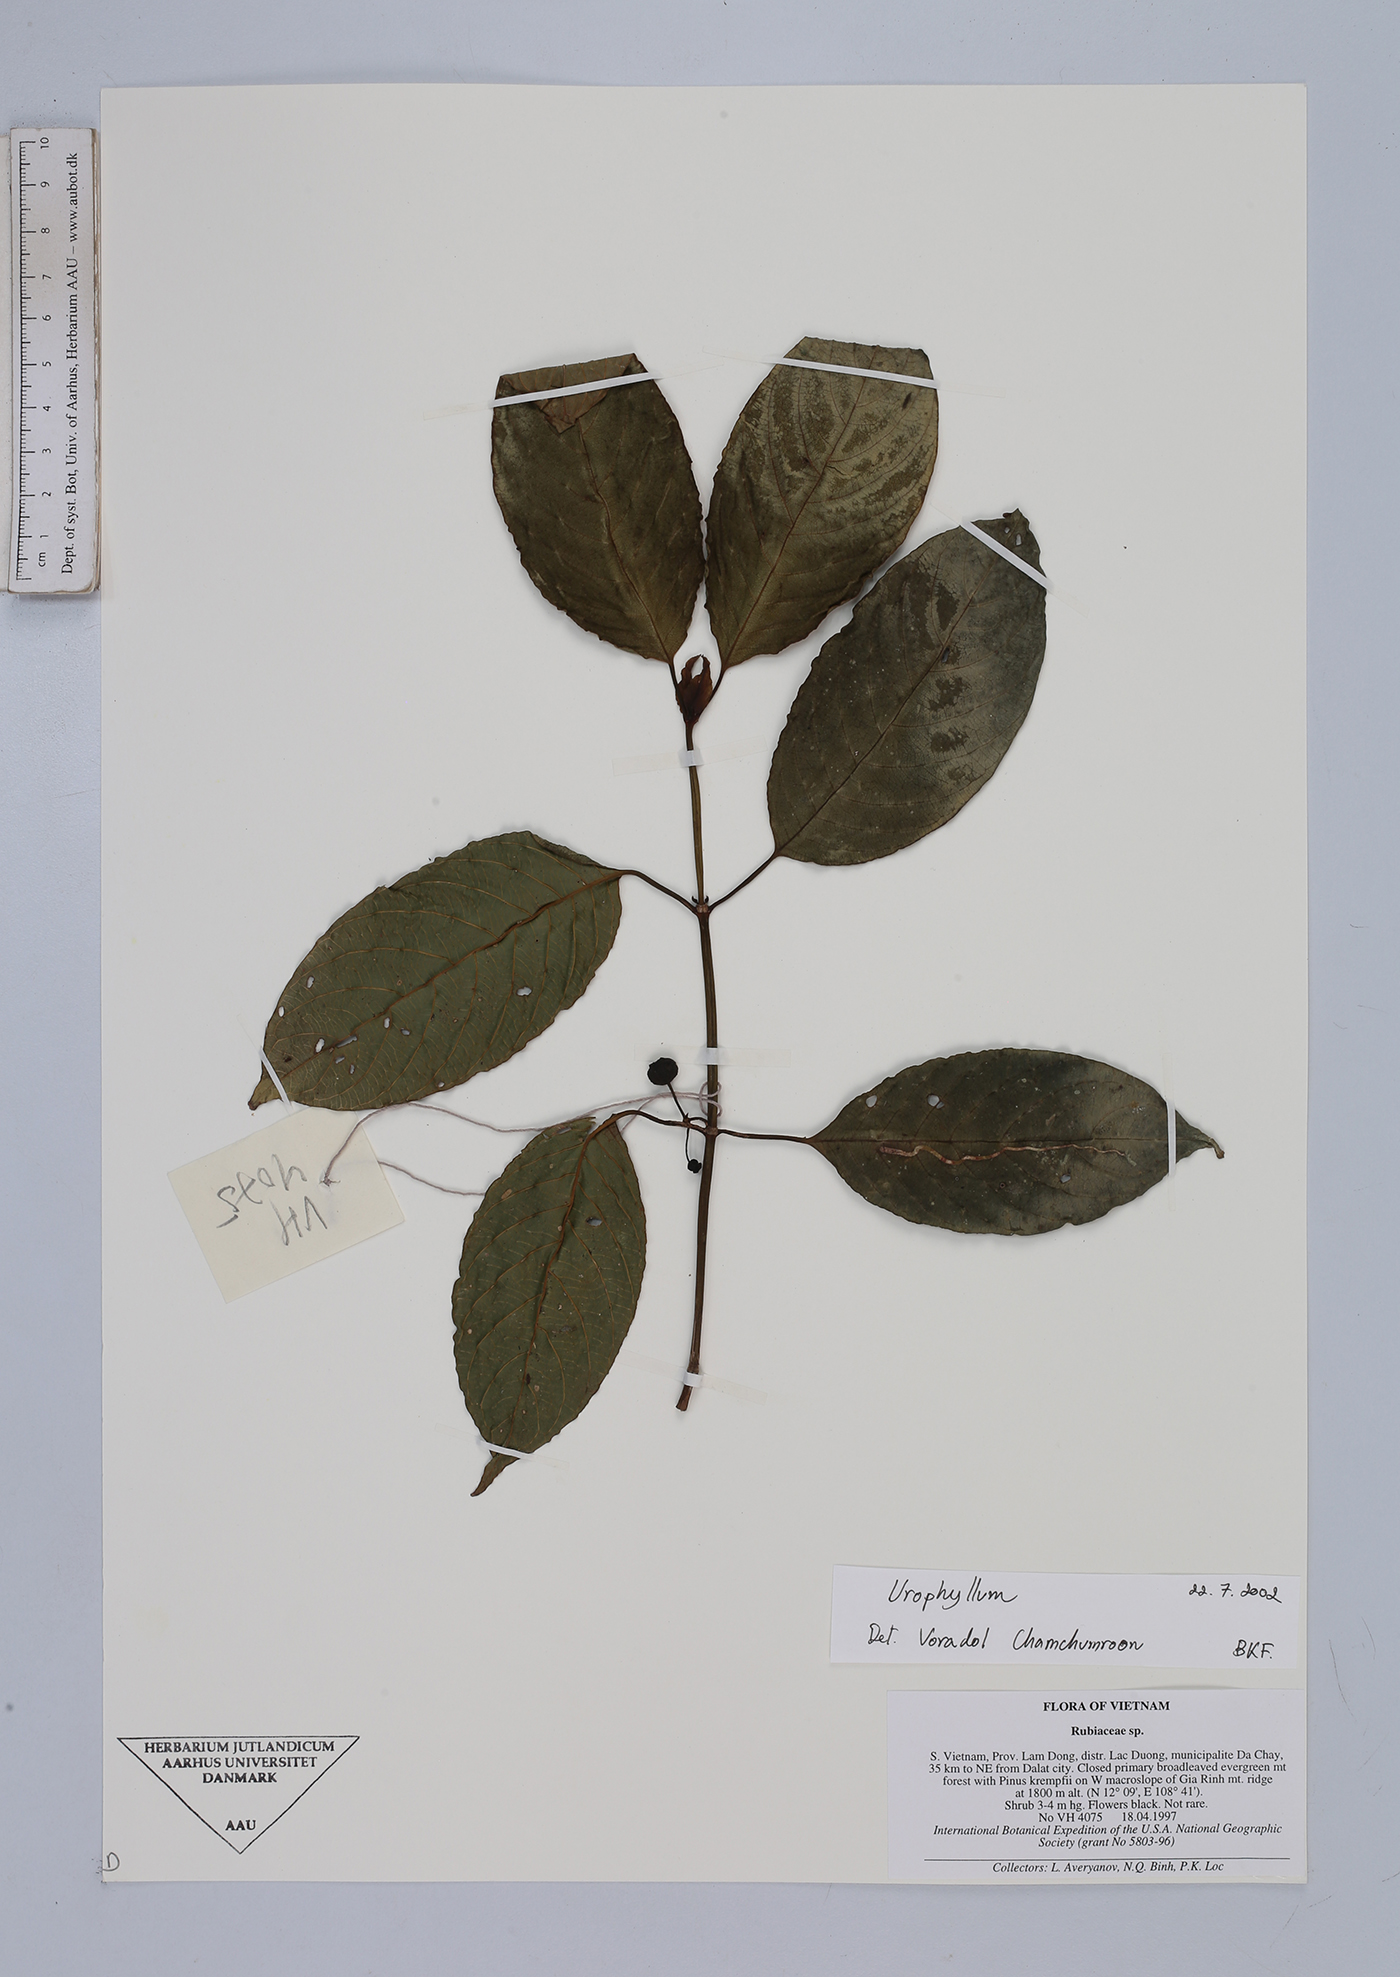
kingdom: Plantae
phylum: Tracheophyta
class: Magnoliopsida
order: Gentianales
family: Rubiaceae
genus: Urophyllum
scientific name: Urophyllum
